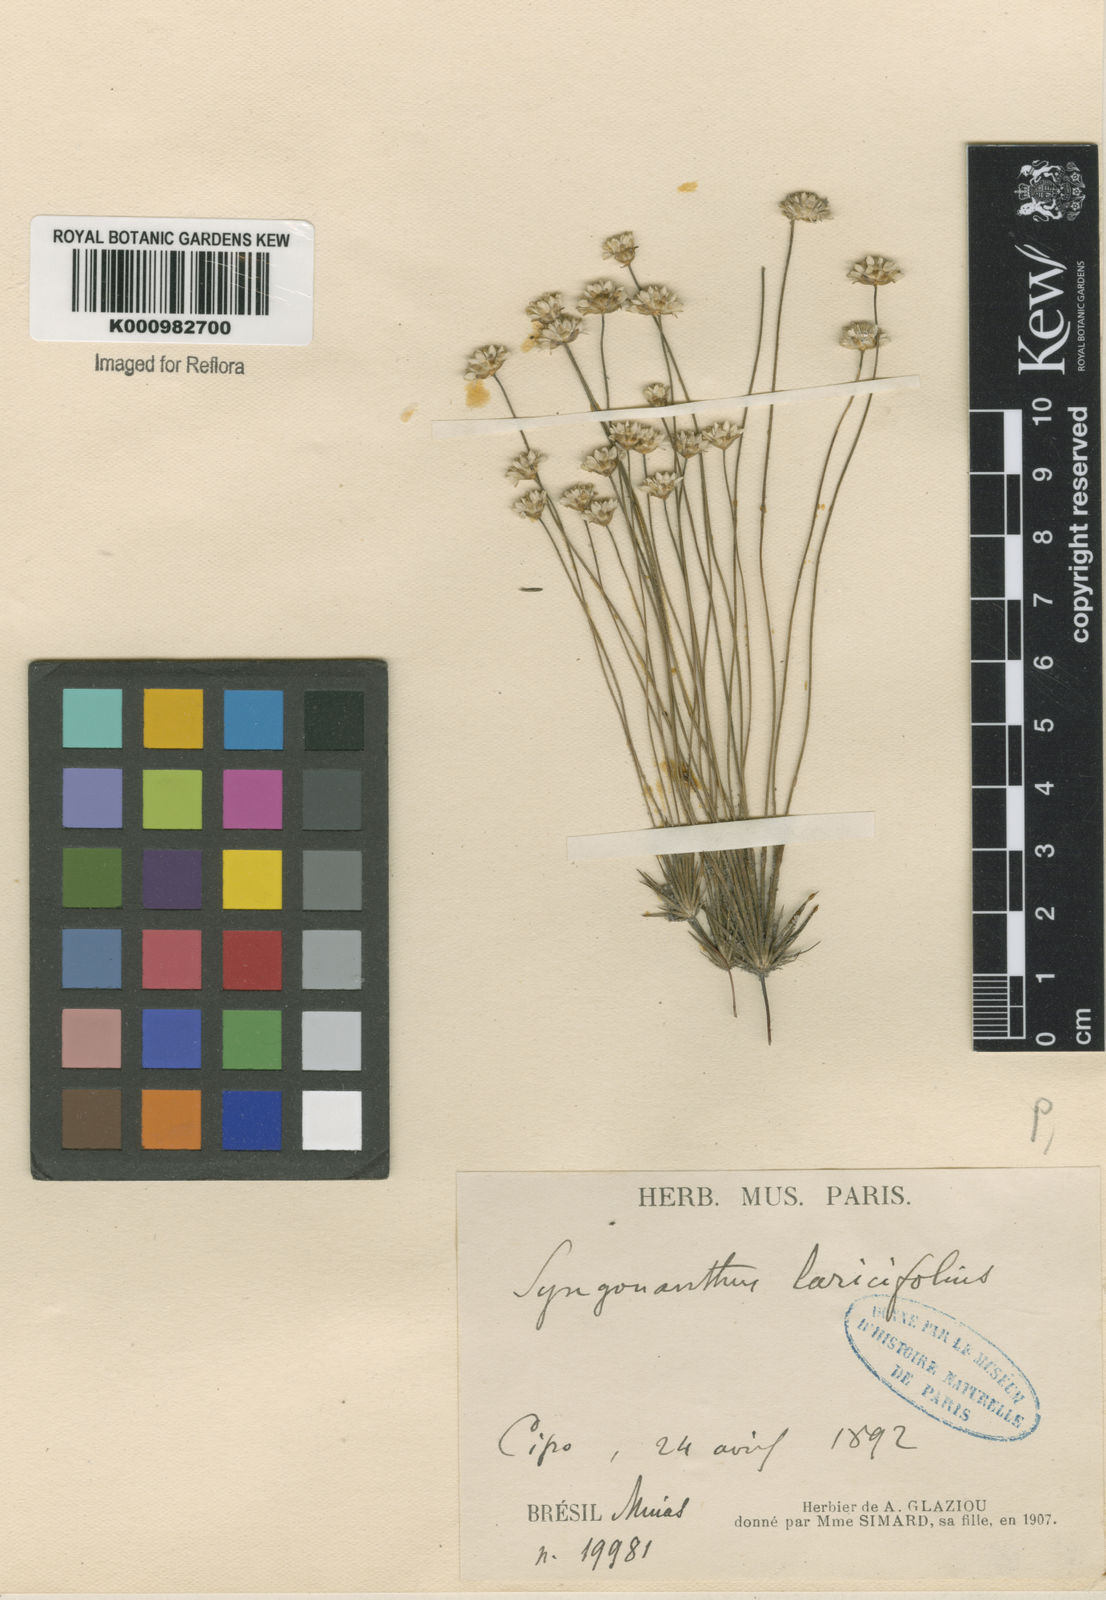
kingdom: Plantae
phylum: Tracheophyta
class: Liliopsida
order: Poales
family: Eriocaulaceae
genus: Syngonanthus
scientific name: Syngonanthus laricifolius
